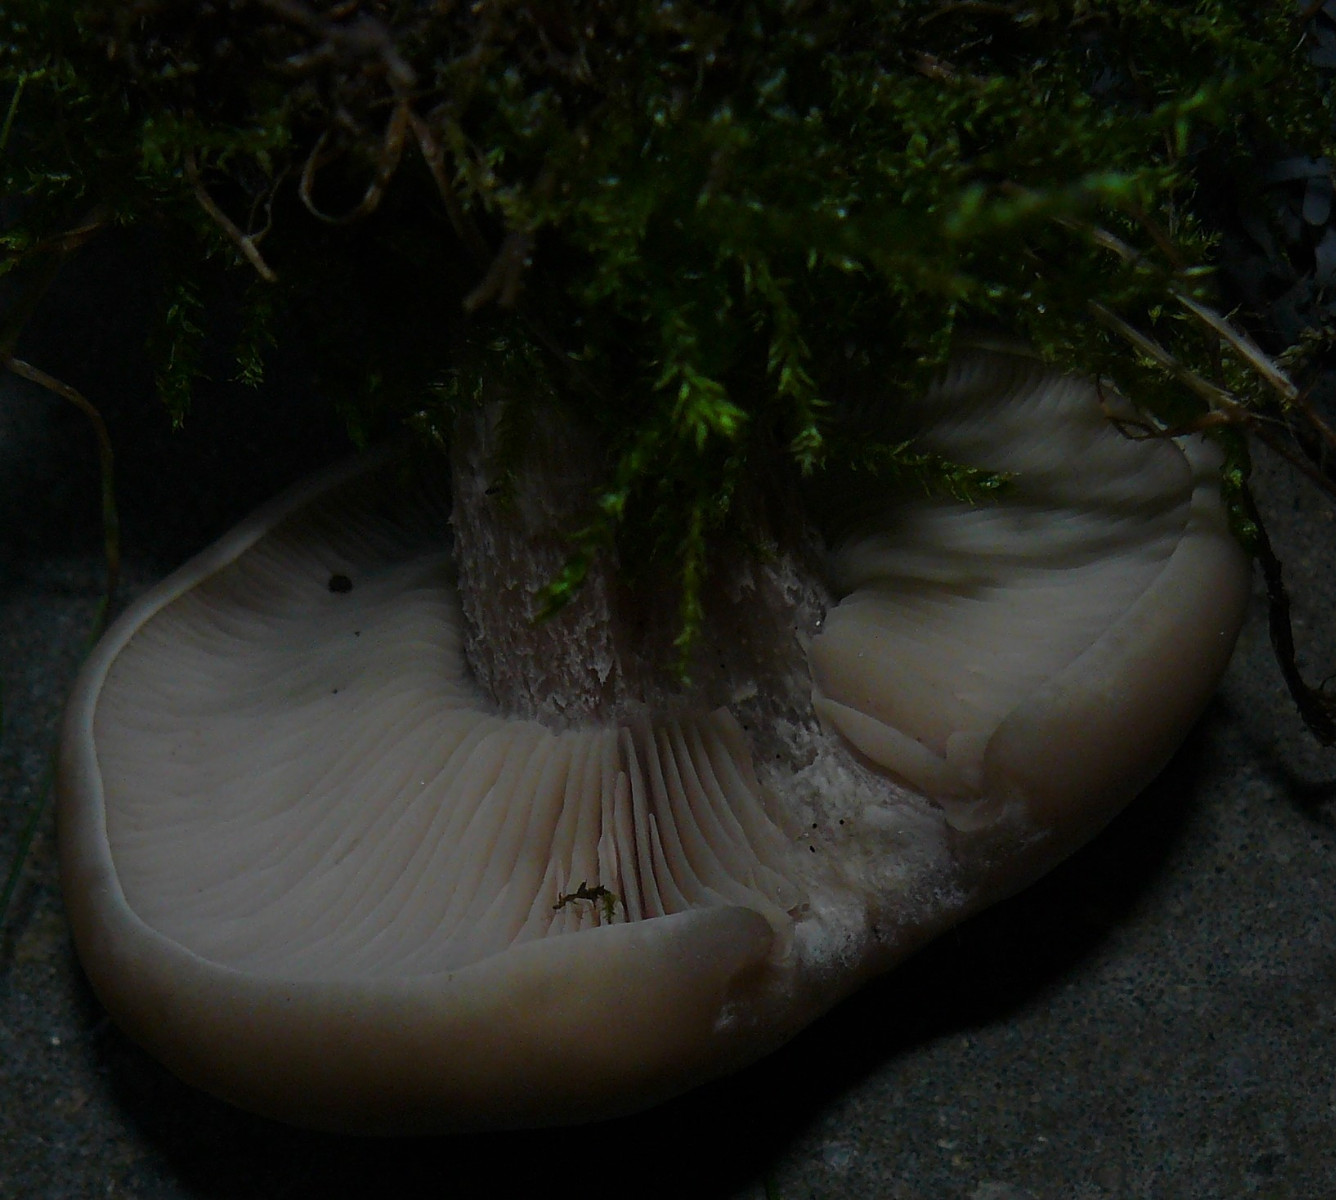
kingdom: Fungi
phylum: Basidiomycota
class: Agaricomycetes
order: Agaricales
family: Tricholomataceae
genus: Lepista
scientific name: Lepista personata
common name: bleg hekseringshat
